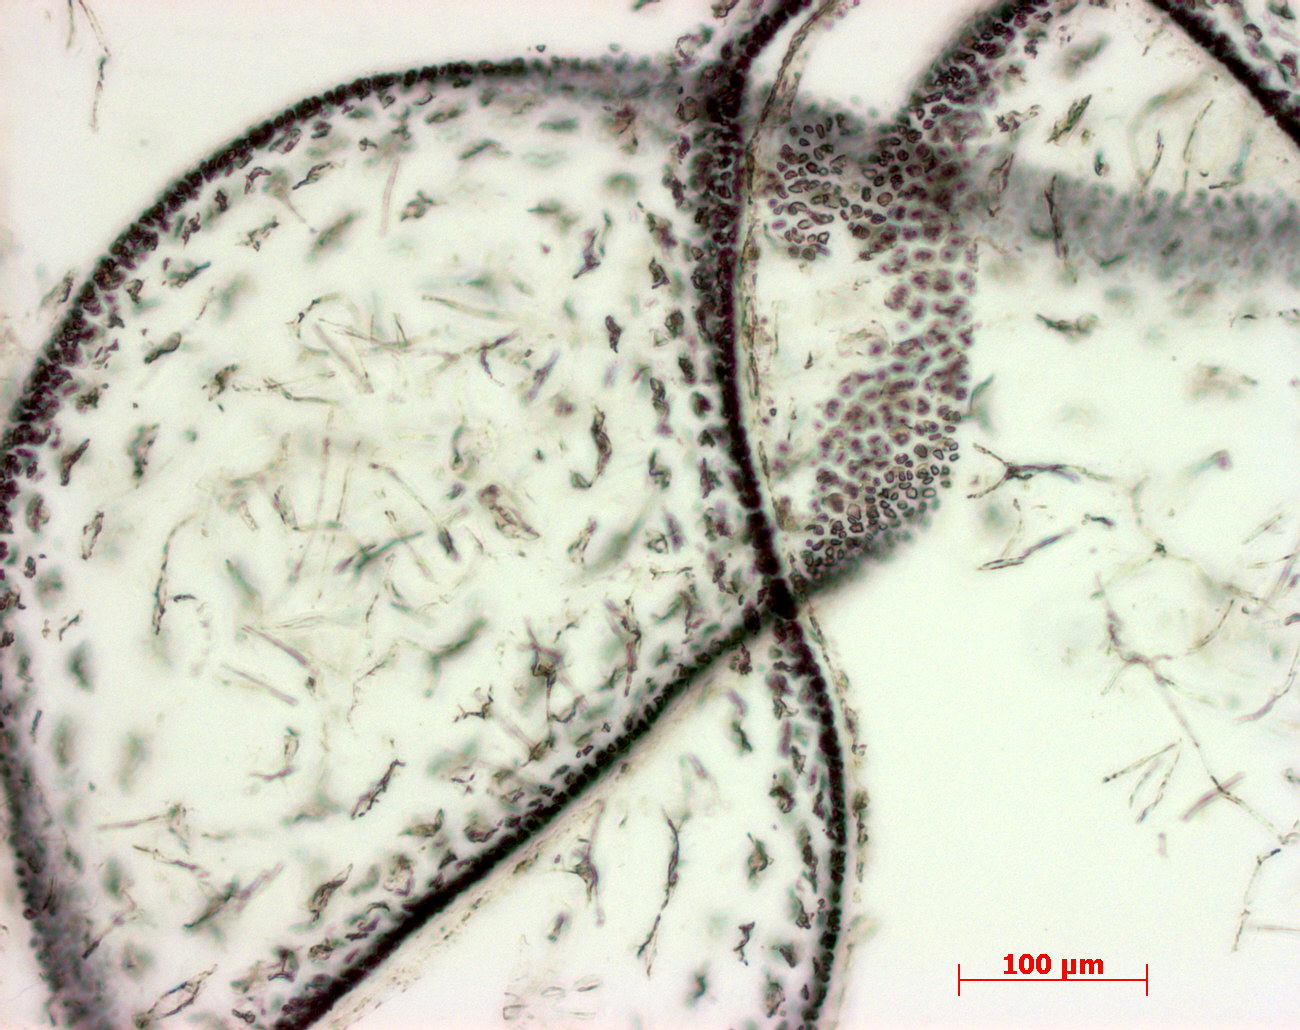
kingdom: Plantae
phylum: Rhodophyta
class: Florideophyceae
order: Gigartinales
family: Kallymeniaceae
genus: Psaromenia
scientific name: Psaromenia berggrenii
